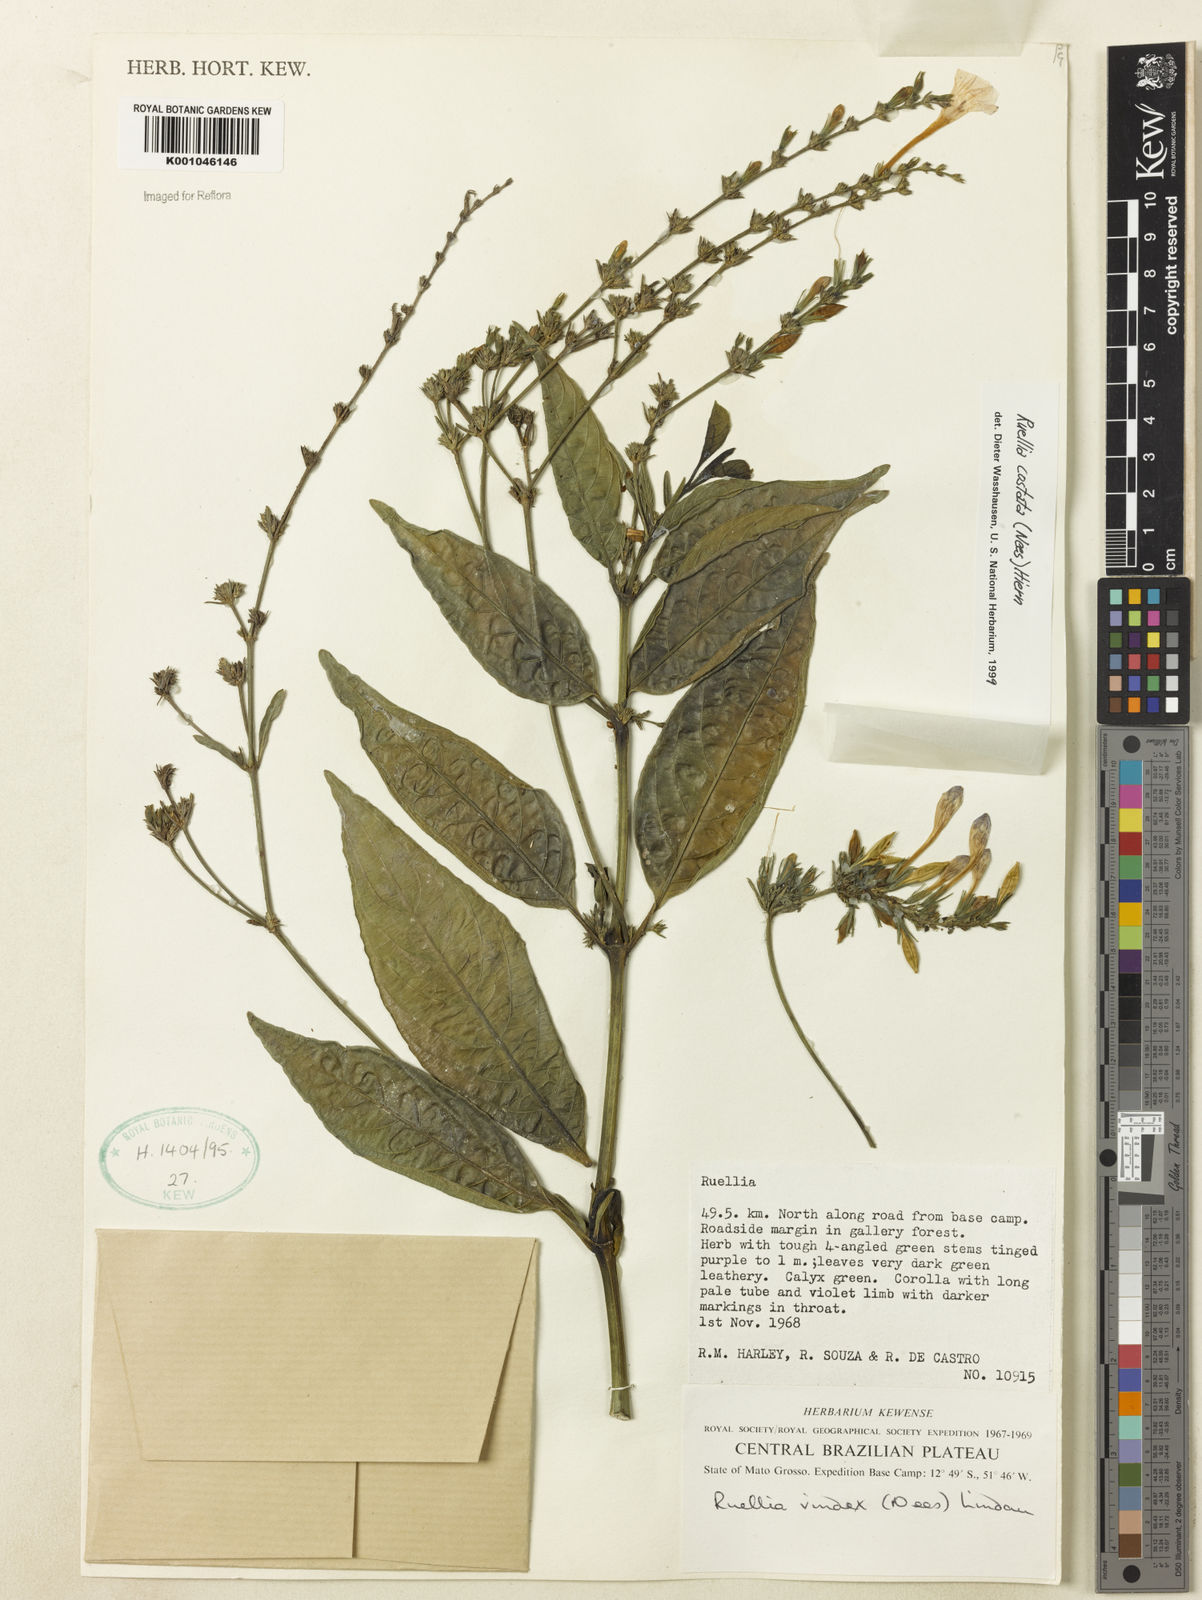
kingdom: Plantae
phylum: Tracheophyta
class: Magnoliopsida
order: Lamiales
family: Acanthaceae
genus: Ruellia
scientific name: Ruellia costata
